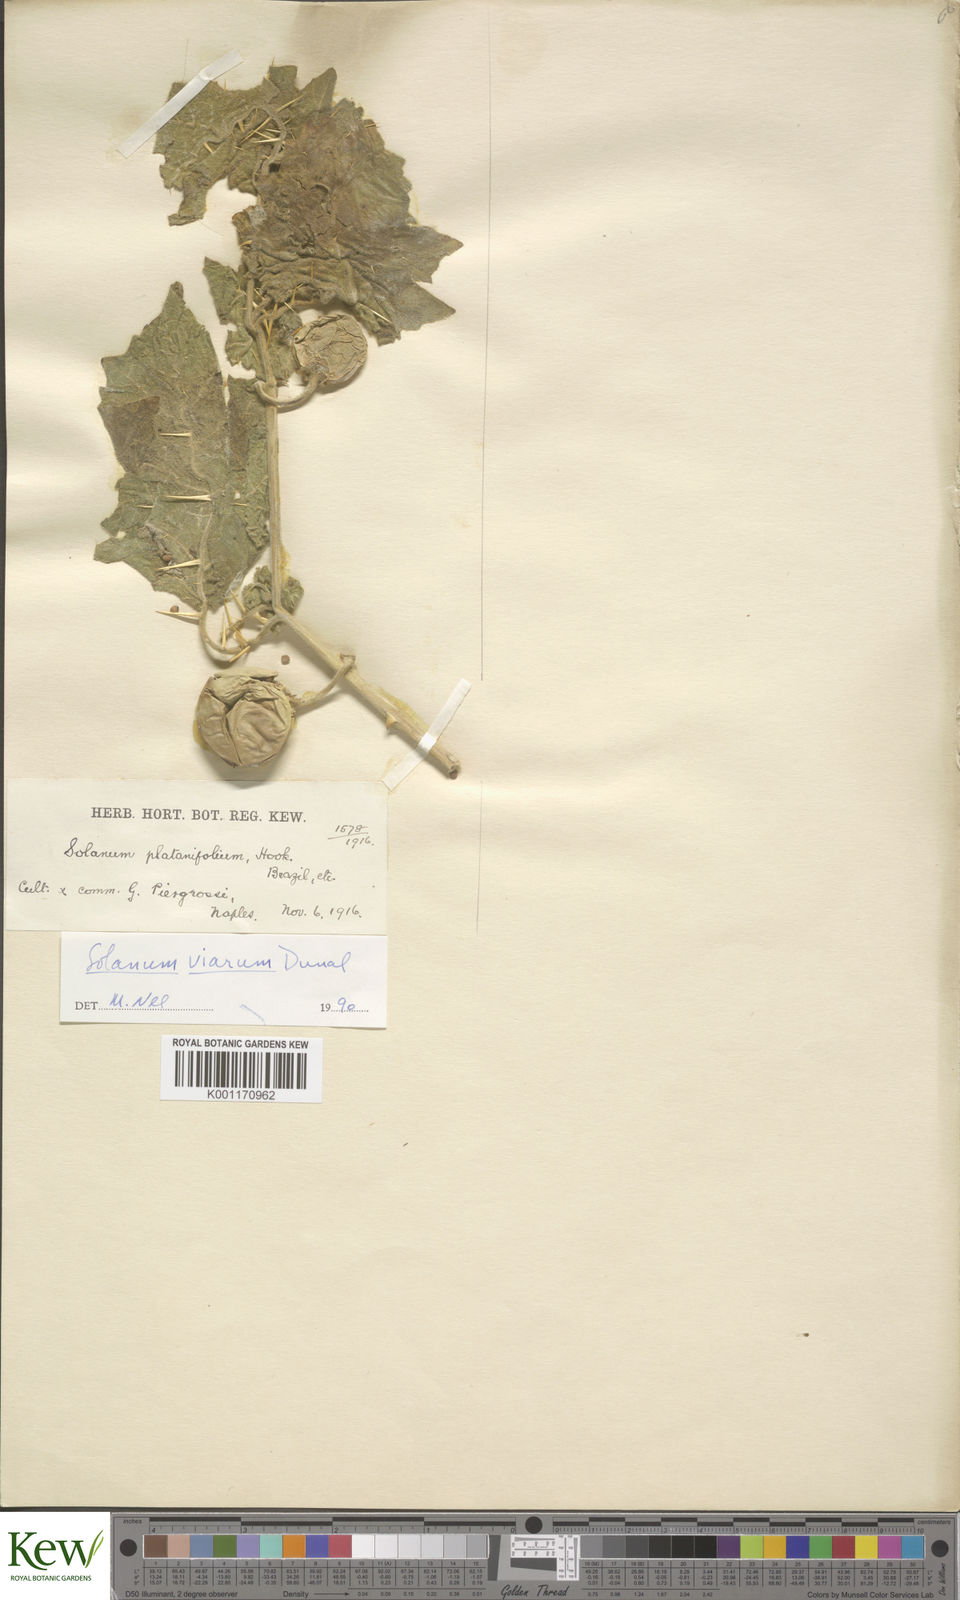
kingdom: Plantae
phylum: Tracheophyta
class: Magnoliopsida
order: Solanales
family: Solanaceae
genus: Solanum
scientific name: Solanum viarum
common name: Tropical soda apple
